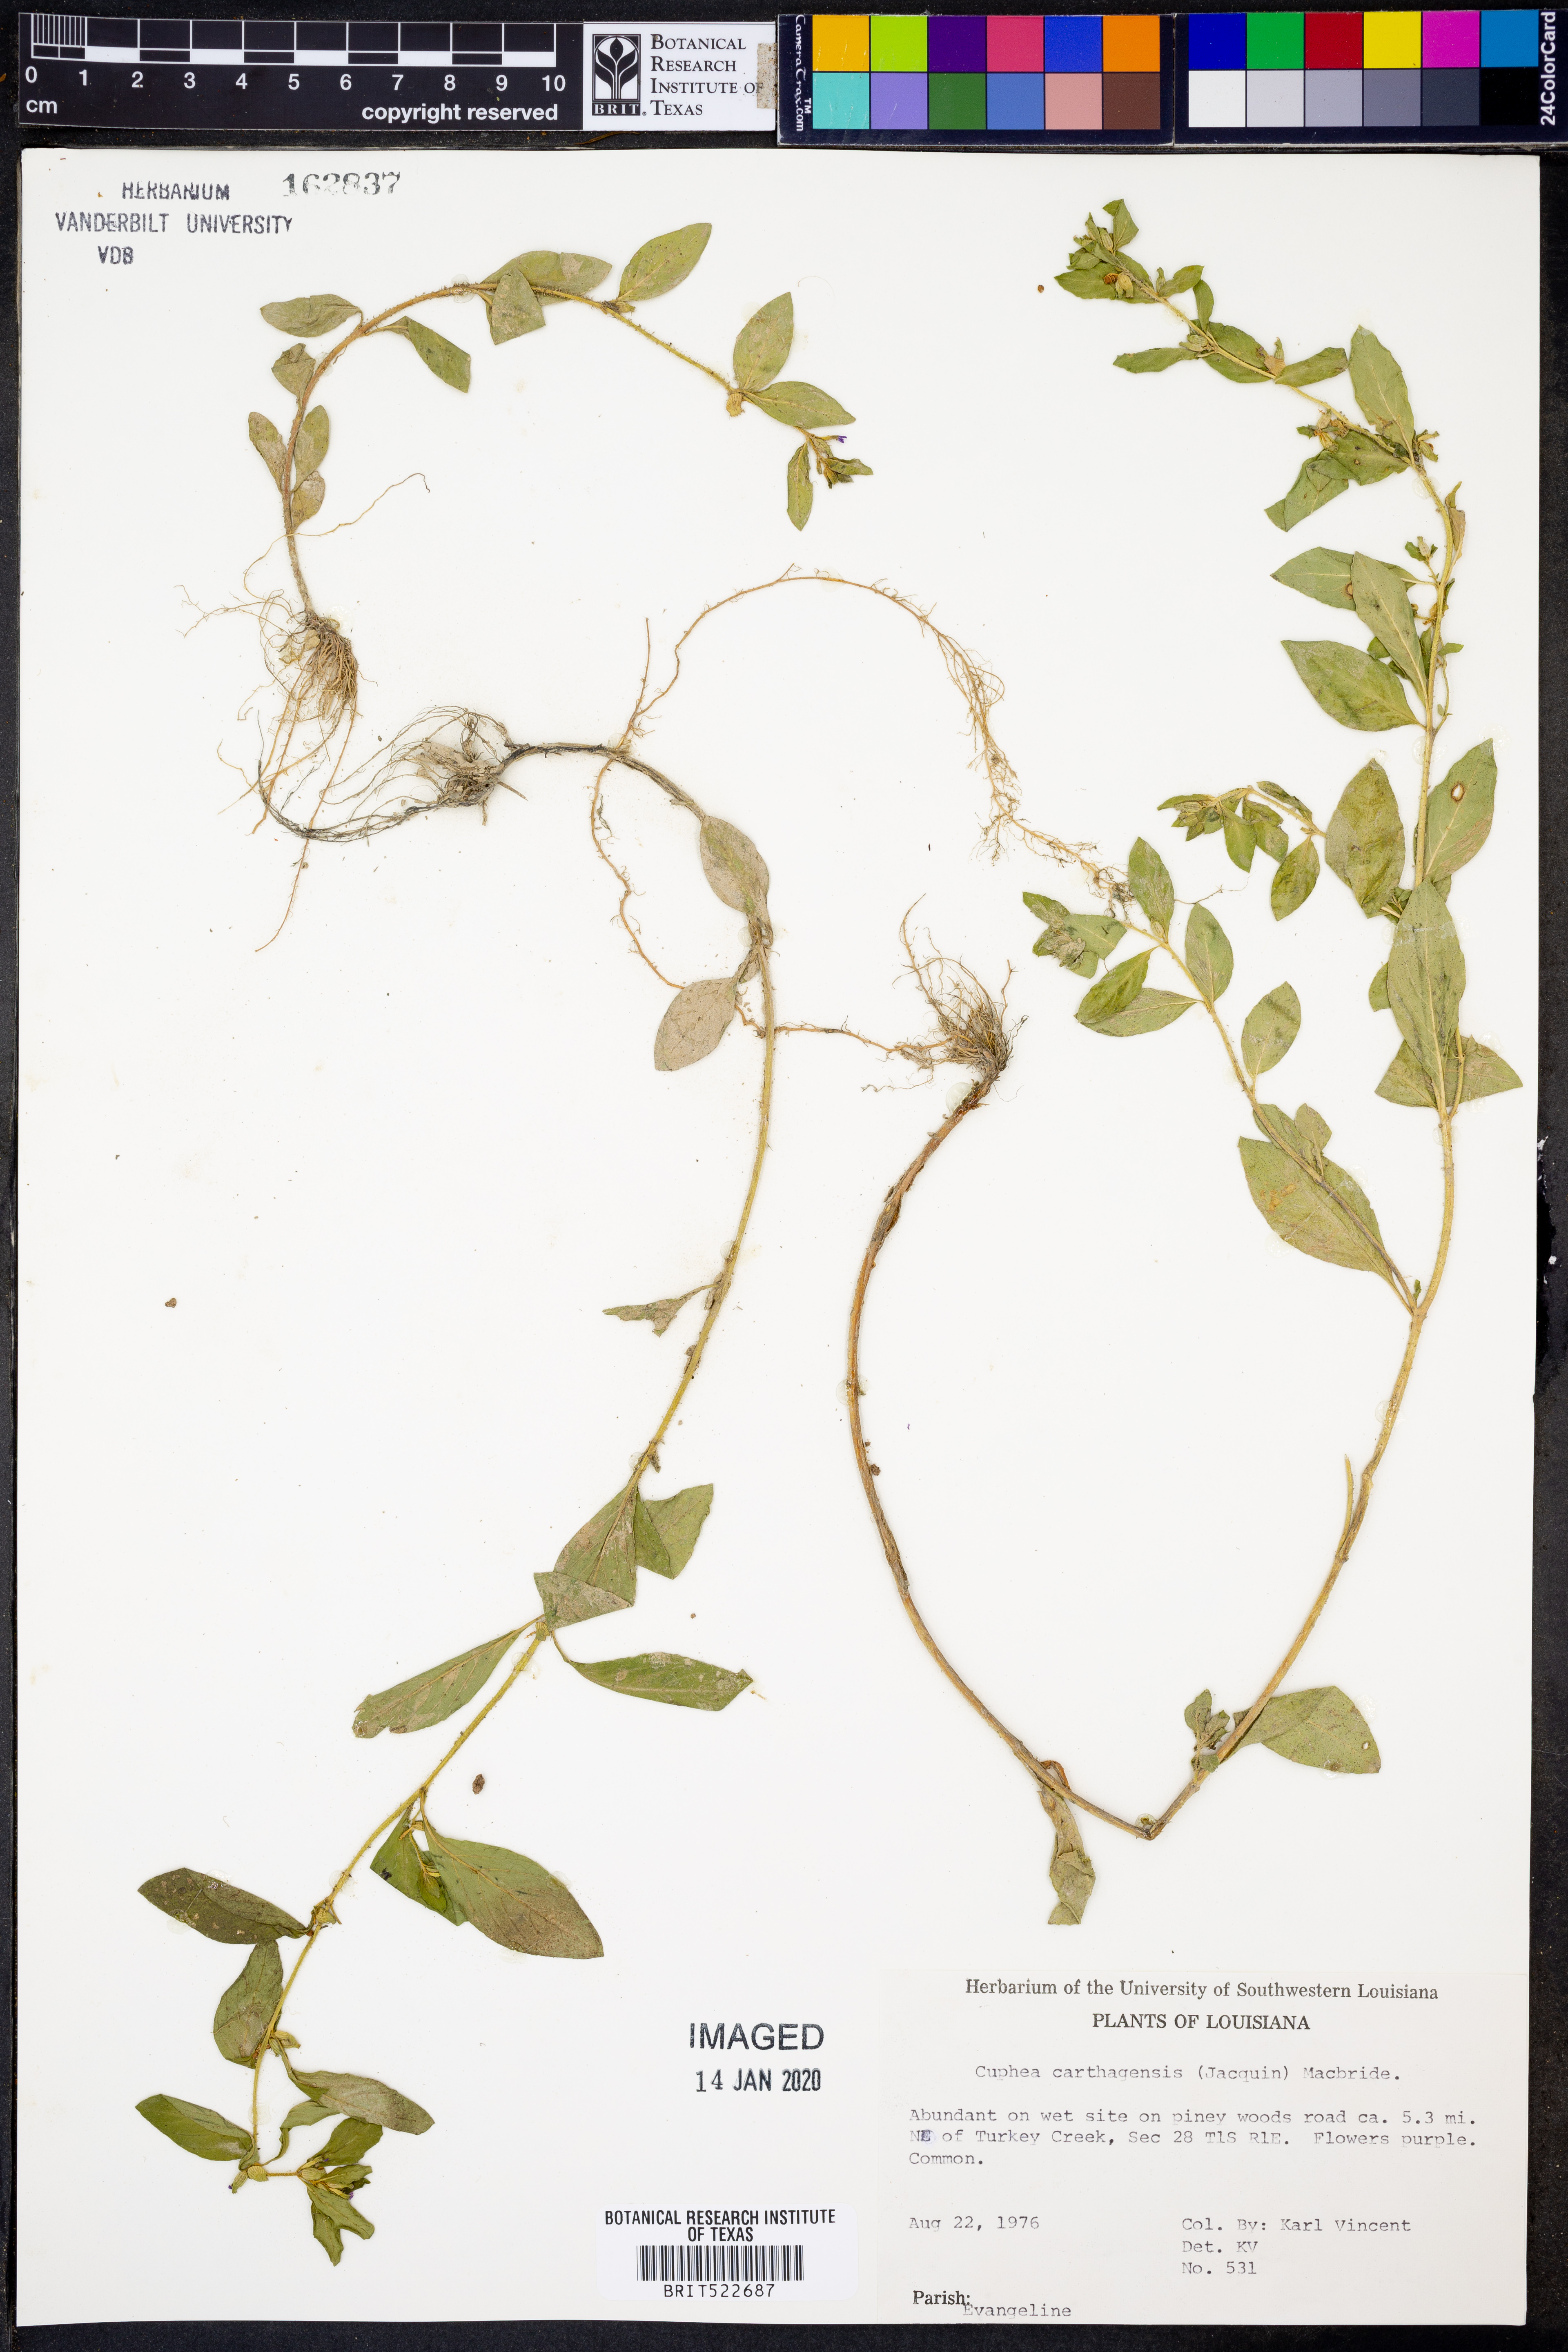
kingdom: Plantae
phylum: Tracheophyta
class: Magnoliopsida
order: Myrtales
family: Lythraceae
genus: Cuphea
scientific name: Cuphea carthagenensis
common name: Colombian waxweed
